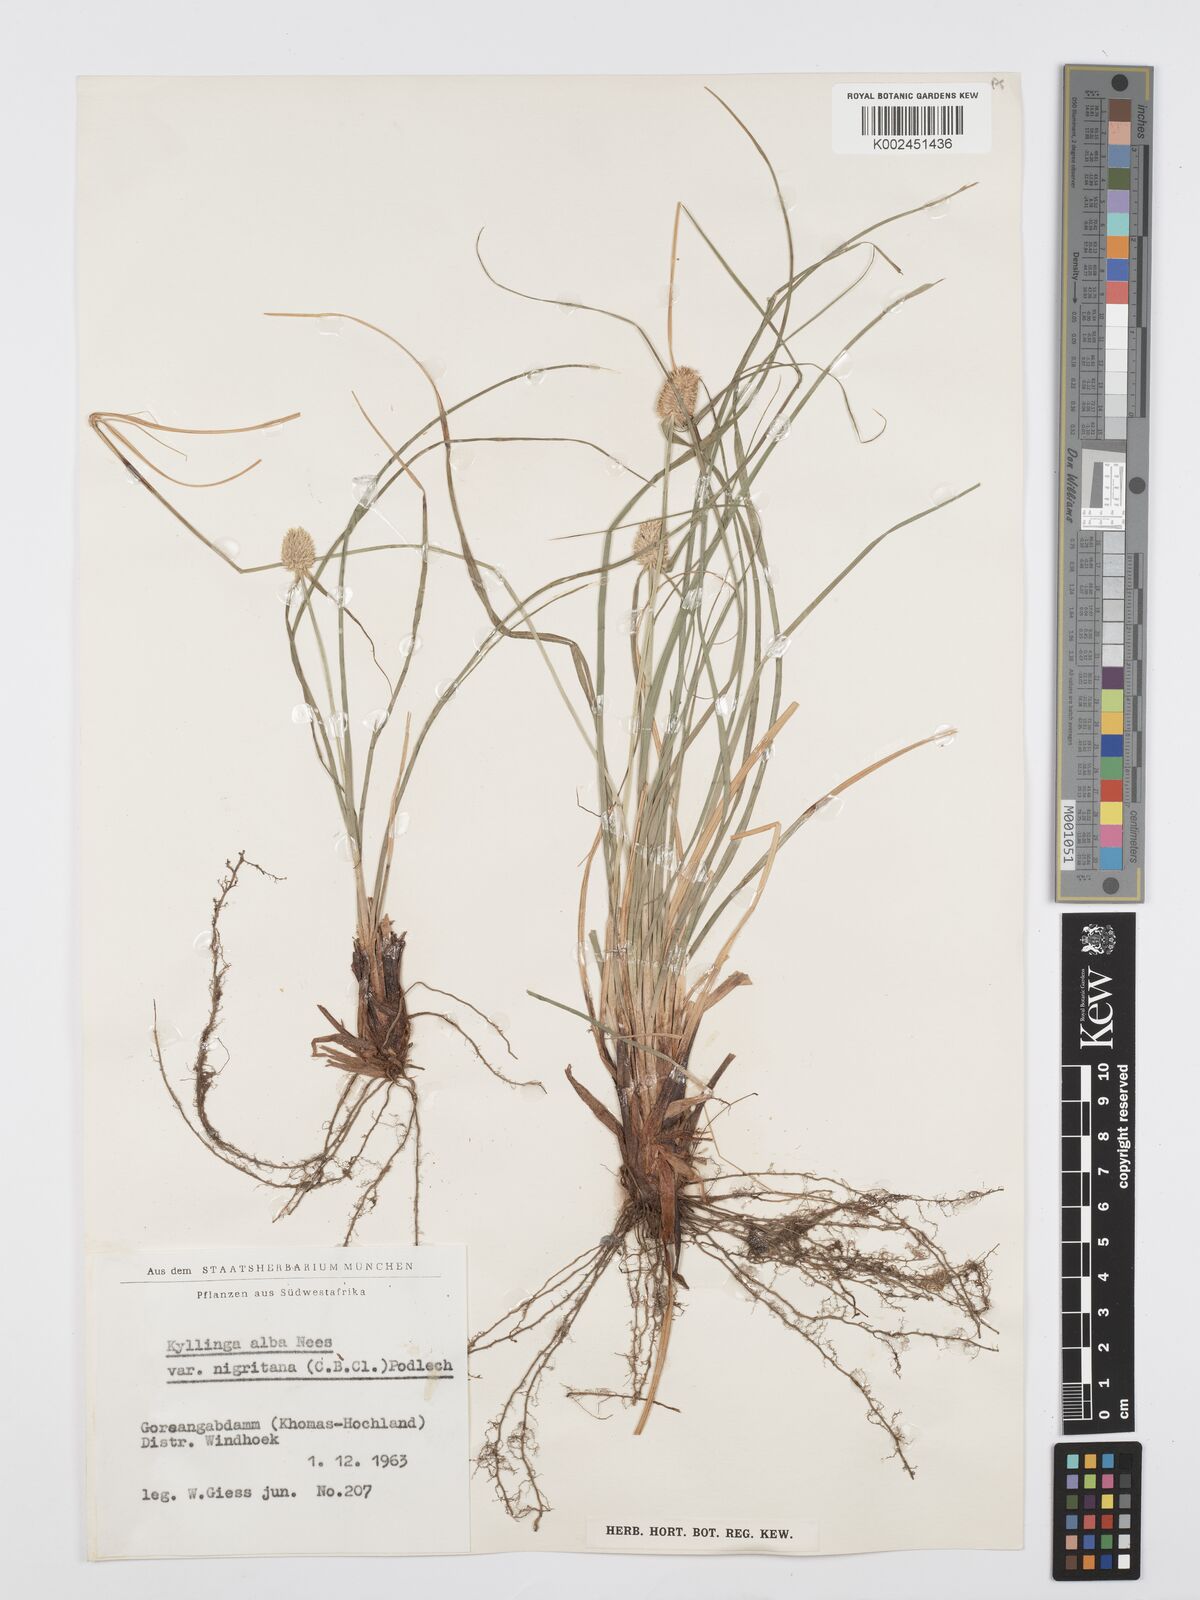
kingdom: Plantae
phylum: Tracheophyta
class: Liliopsida
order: Poales
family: Cyperaceae
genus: Cyperus
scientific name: Cyperus alatus
